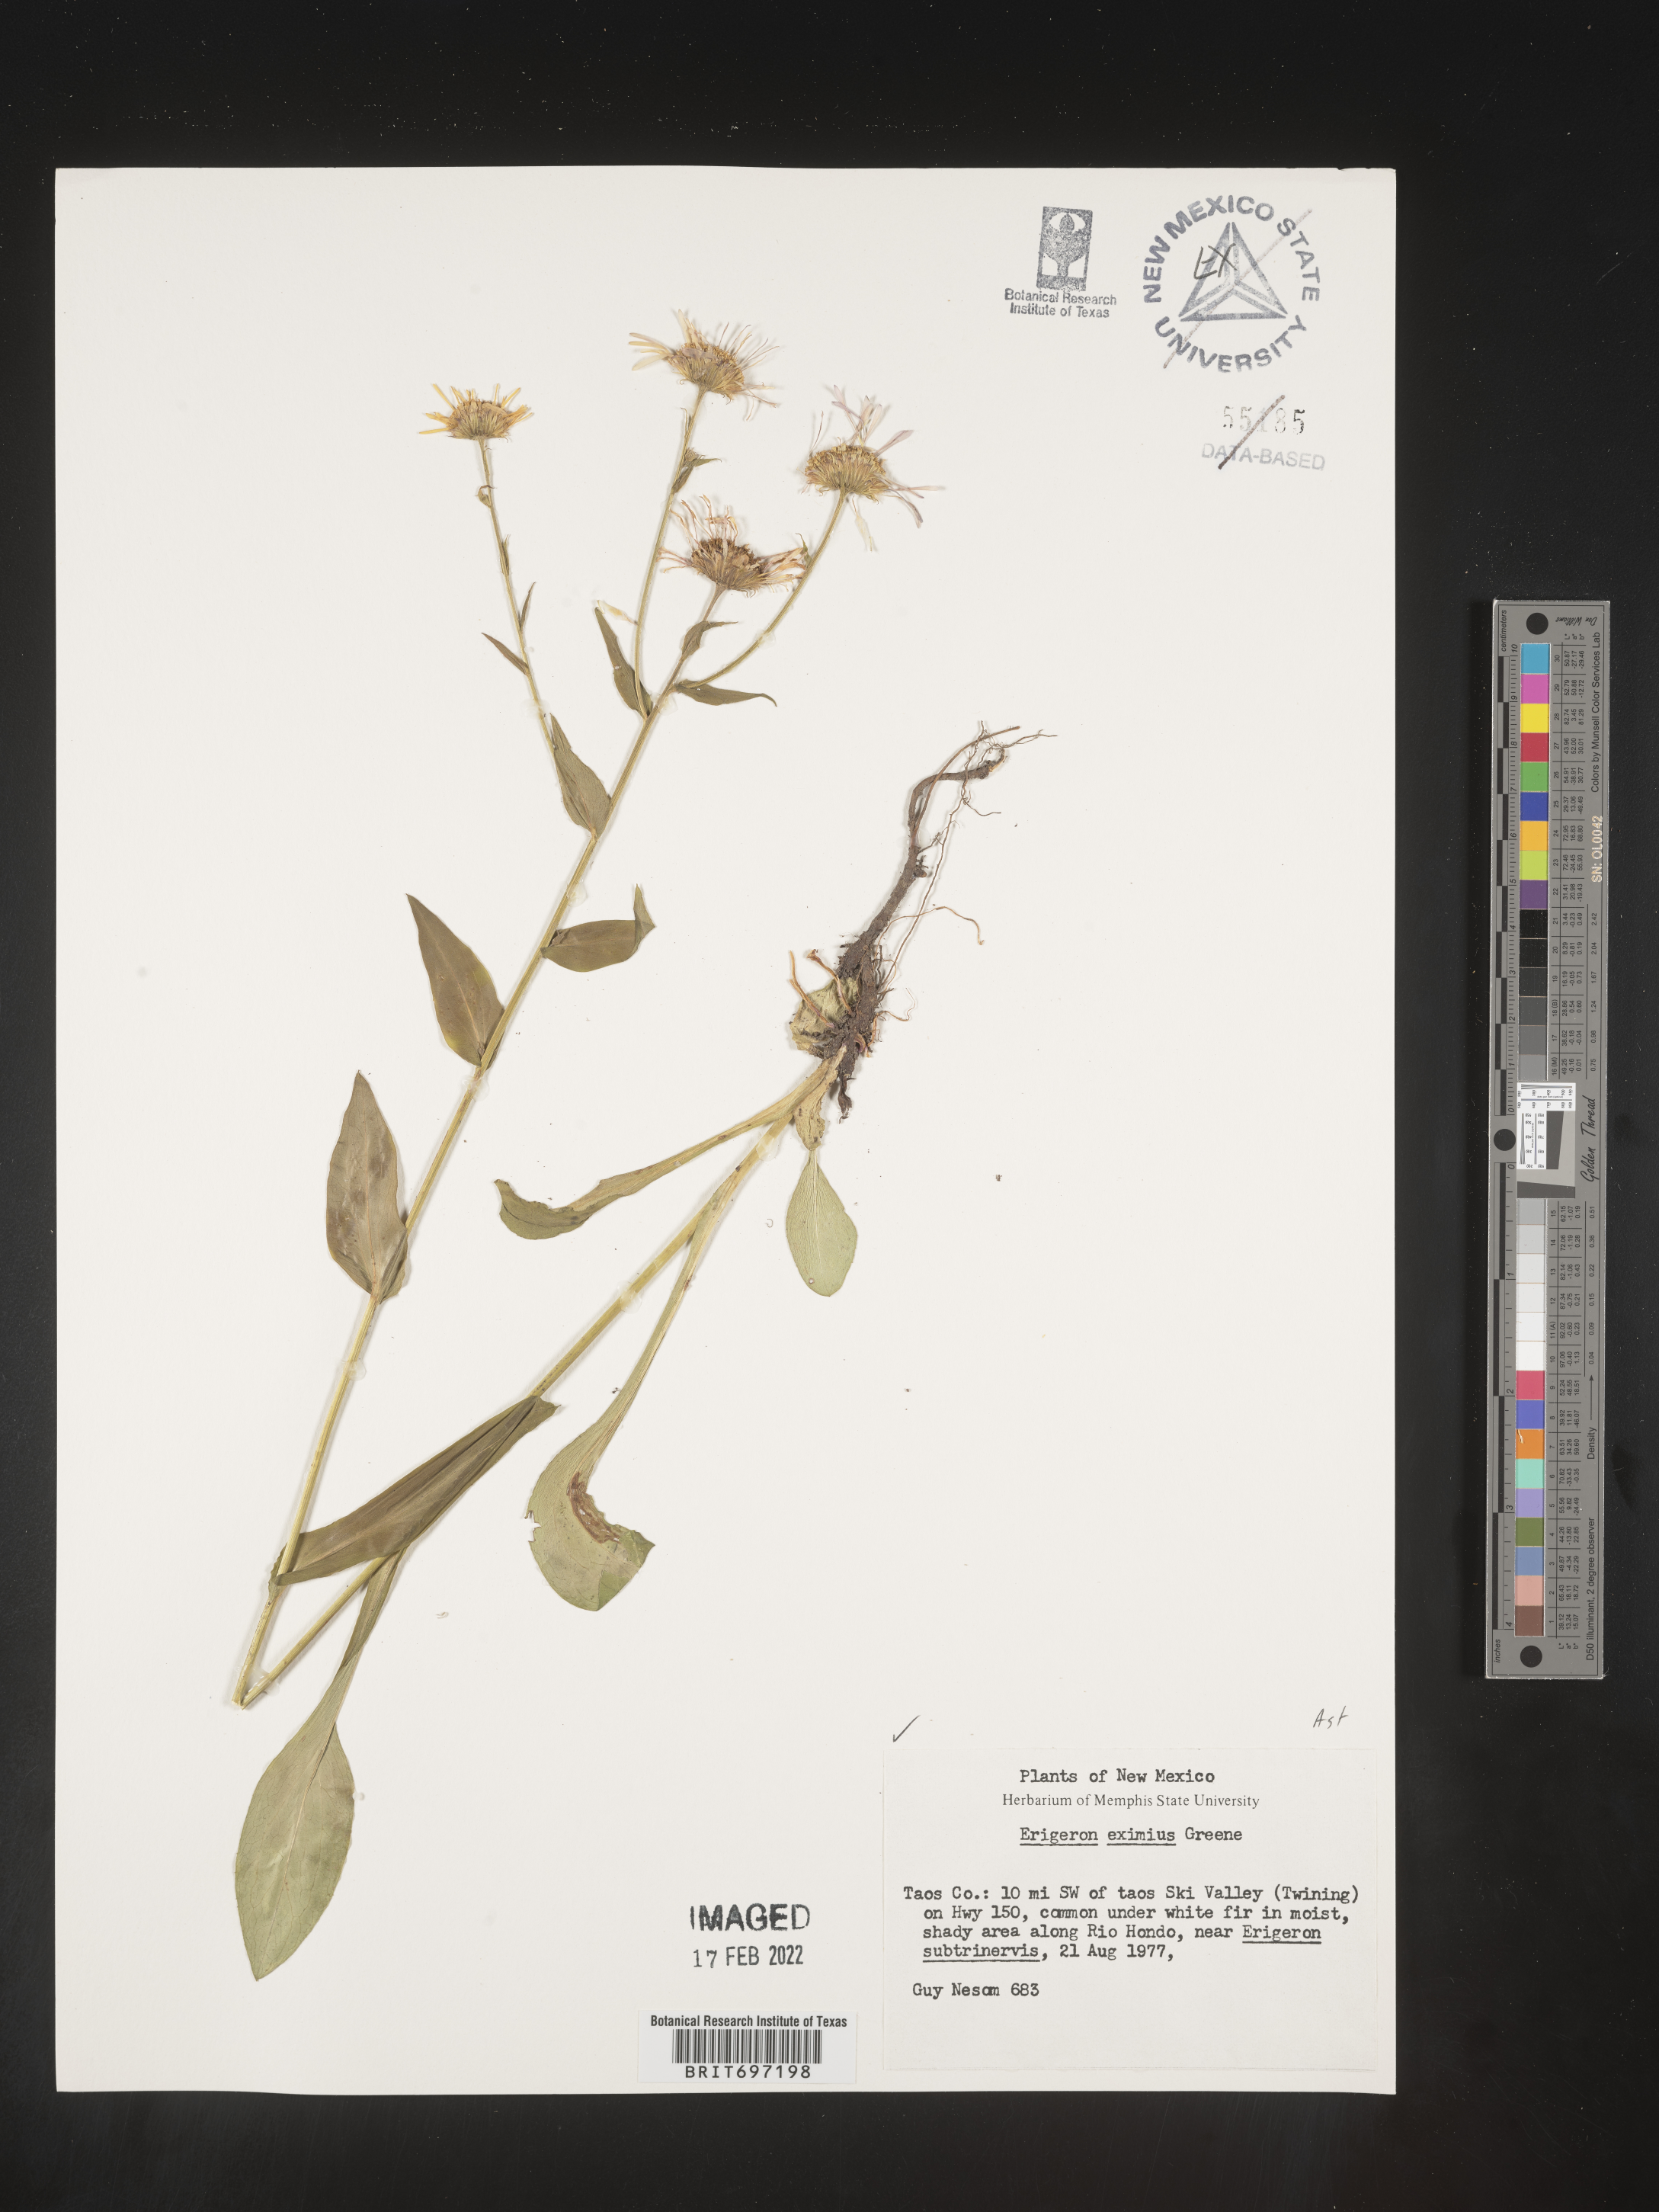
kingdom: Plantae
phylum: Tracheophyta
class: Magnoliopsida
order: Asterales
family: Asteraceae
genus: Erigeron
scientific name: Erigeron eximius
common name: Spruce-fir fleabane
